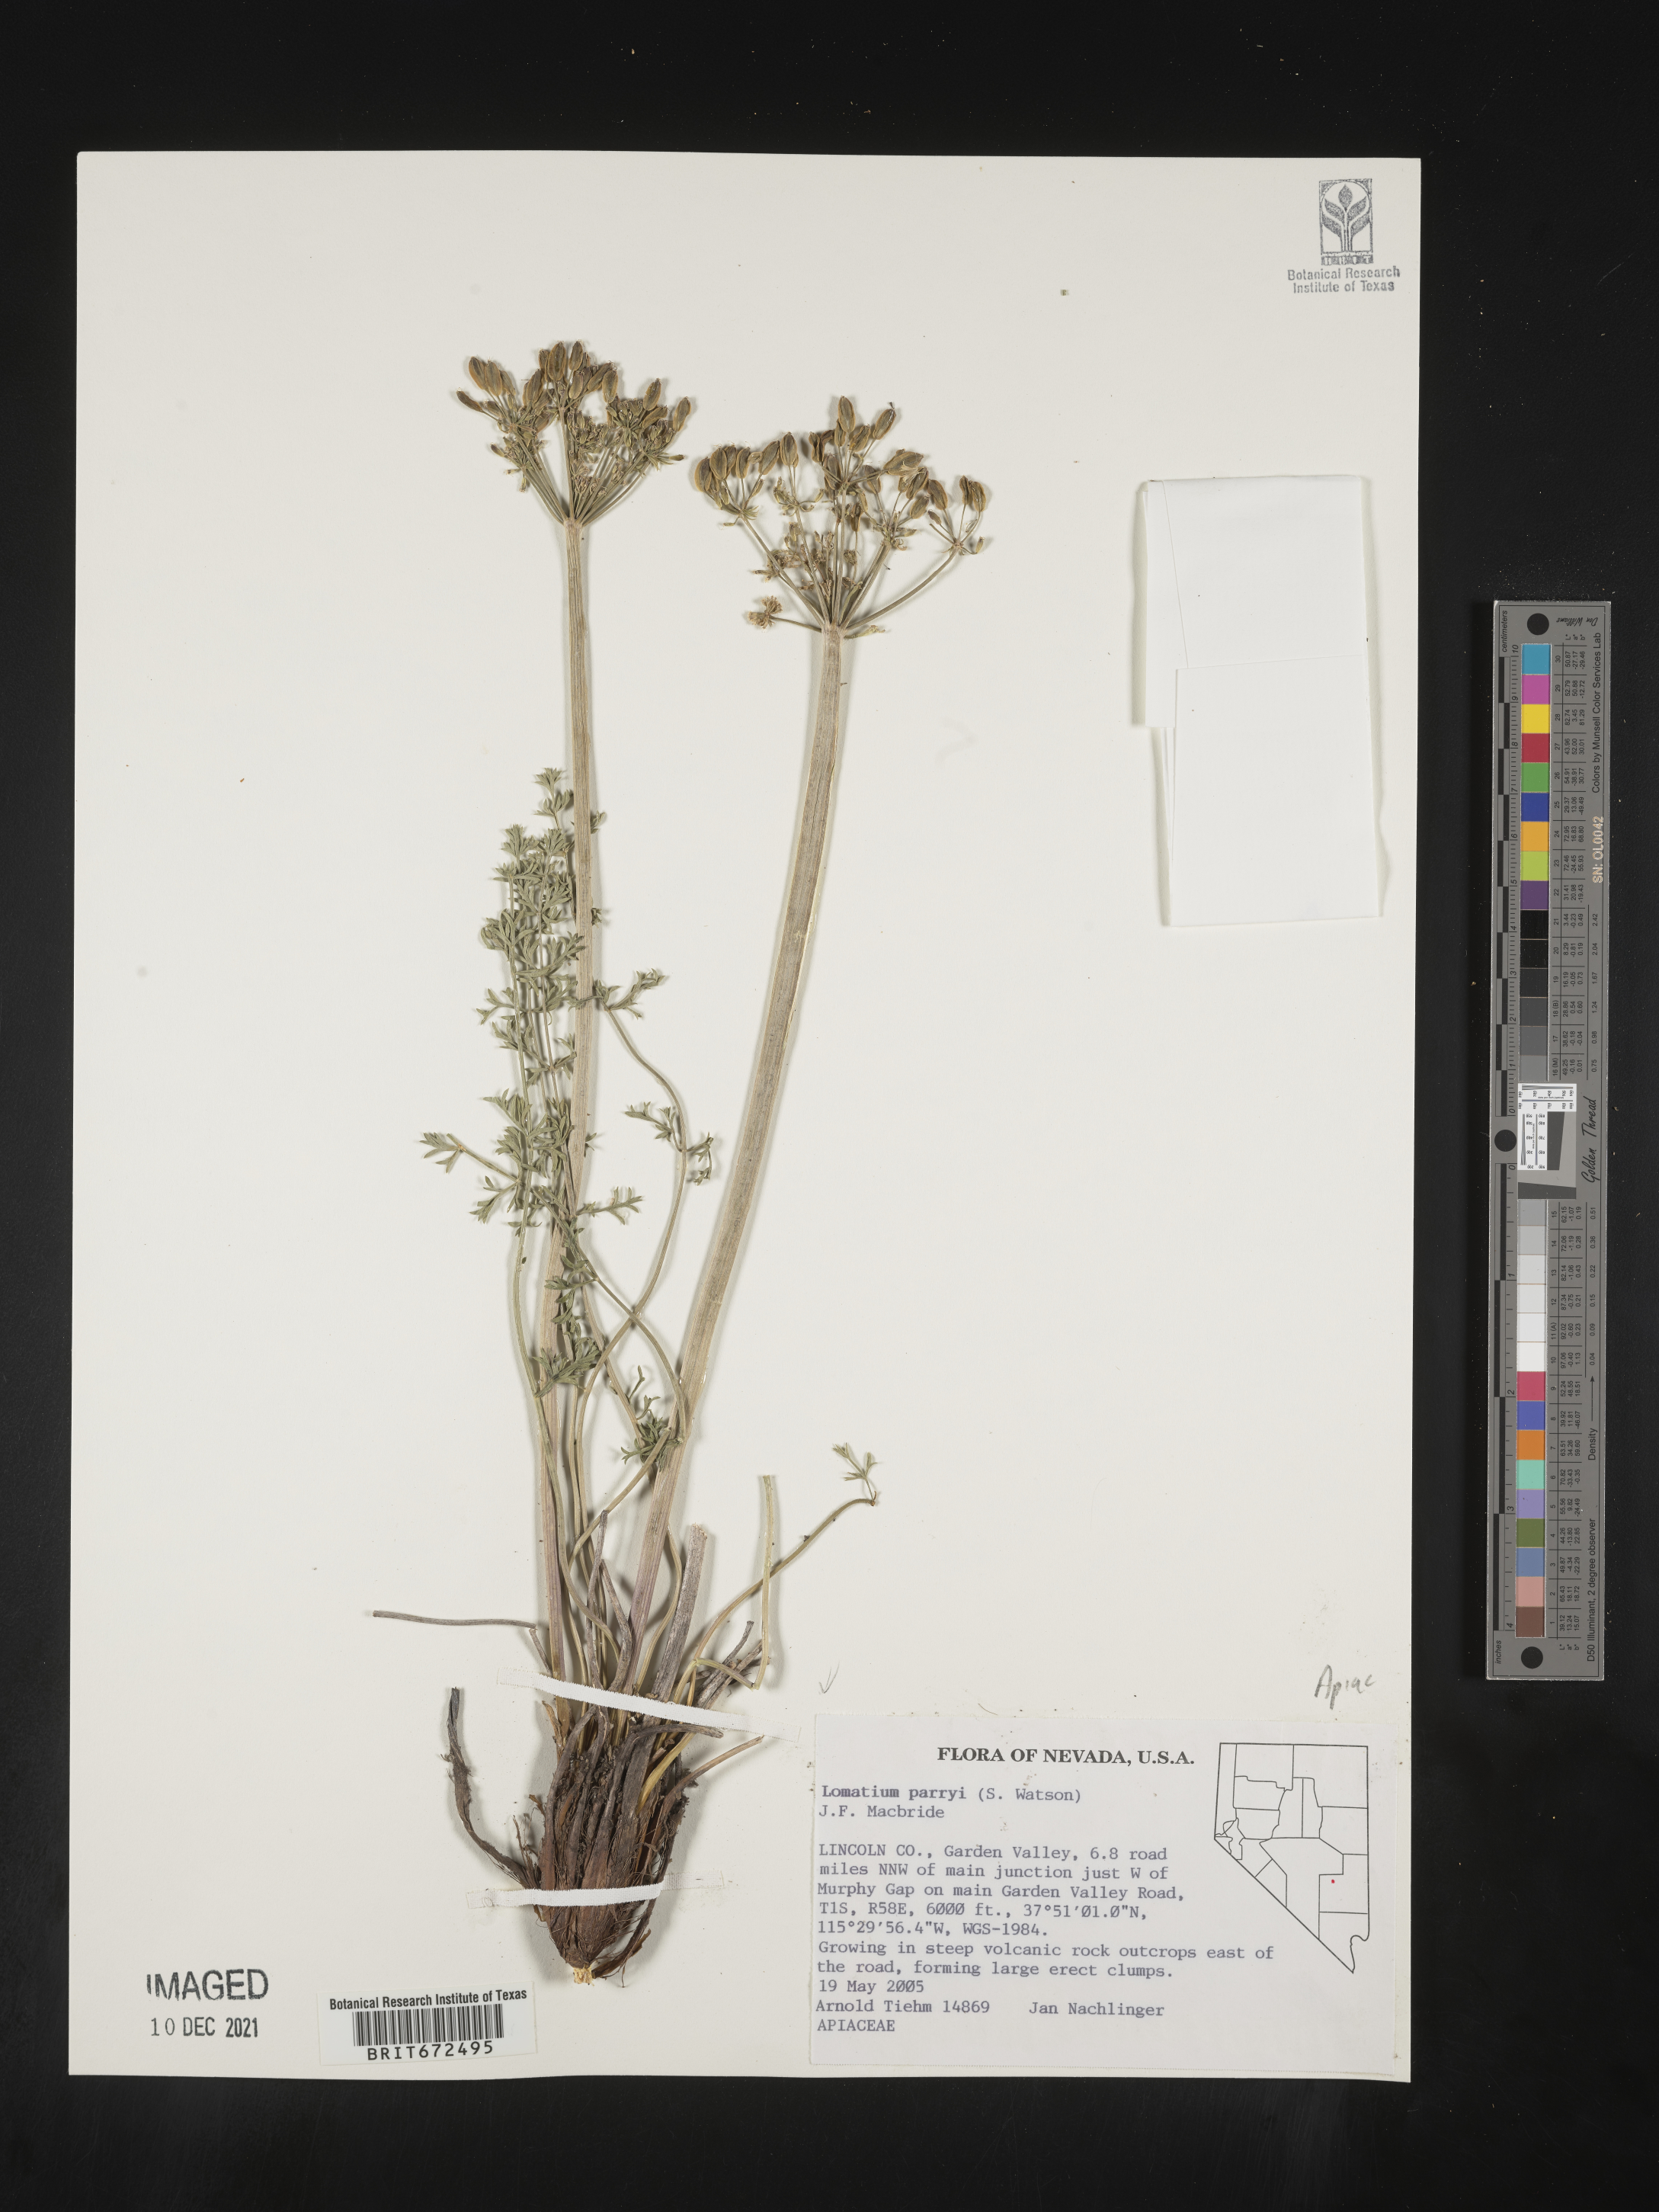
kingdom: Plantae
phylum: Tracheophyta
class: Magnoliopsida
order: Apiales
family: Apiaceae
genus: Lomatium
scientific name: Lomatium parryi
